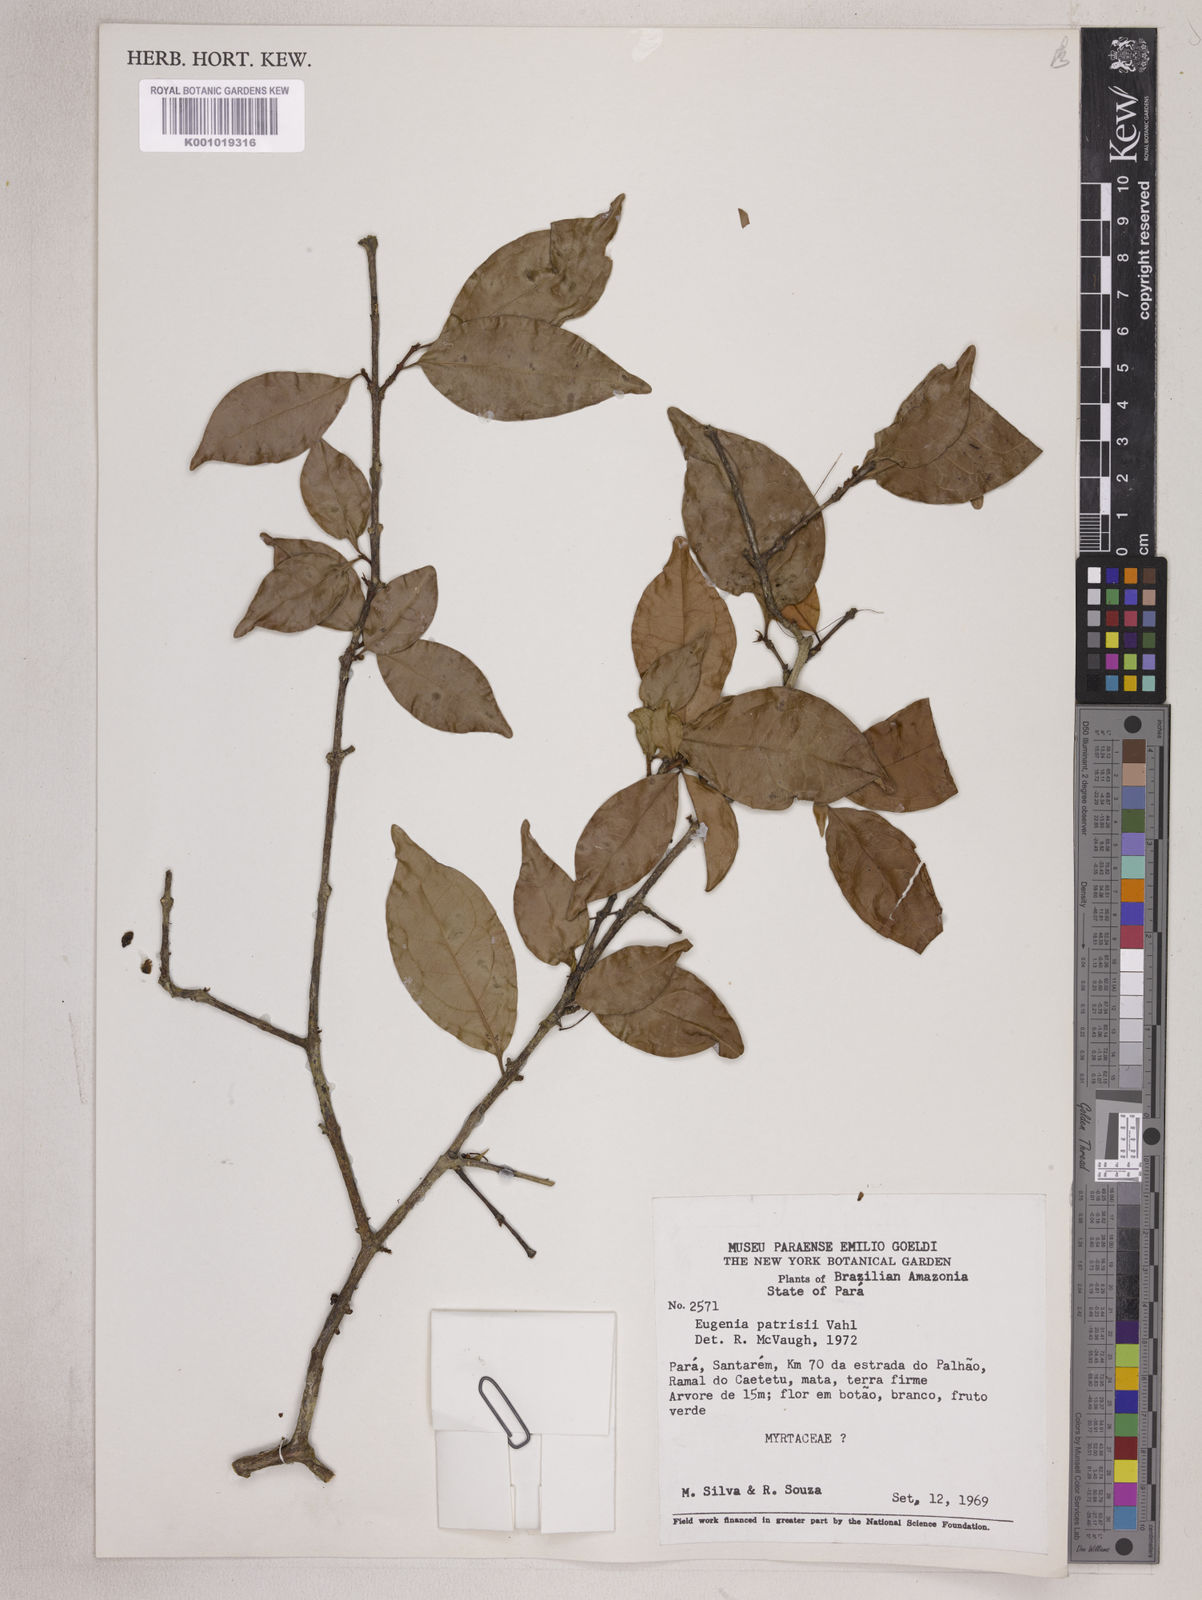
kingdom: Plantae
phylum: Tracheophyta
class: Magnoliopsida
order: Myrtales
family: Myrtaceae
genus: Eugenia
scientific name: Eugenia patrisii
